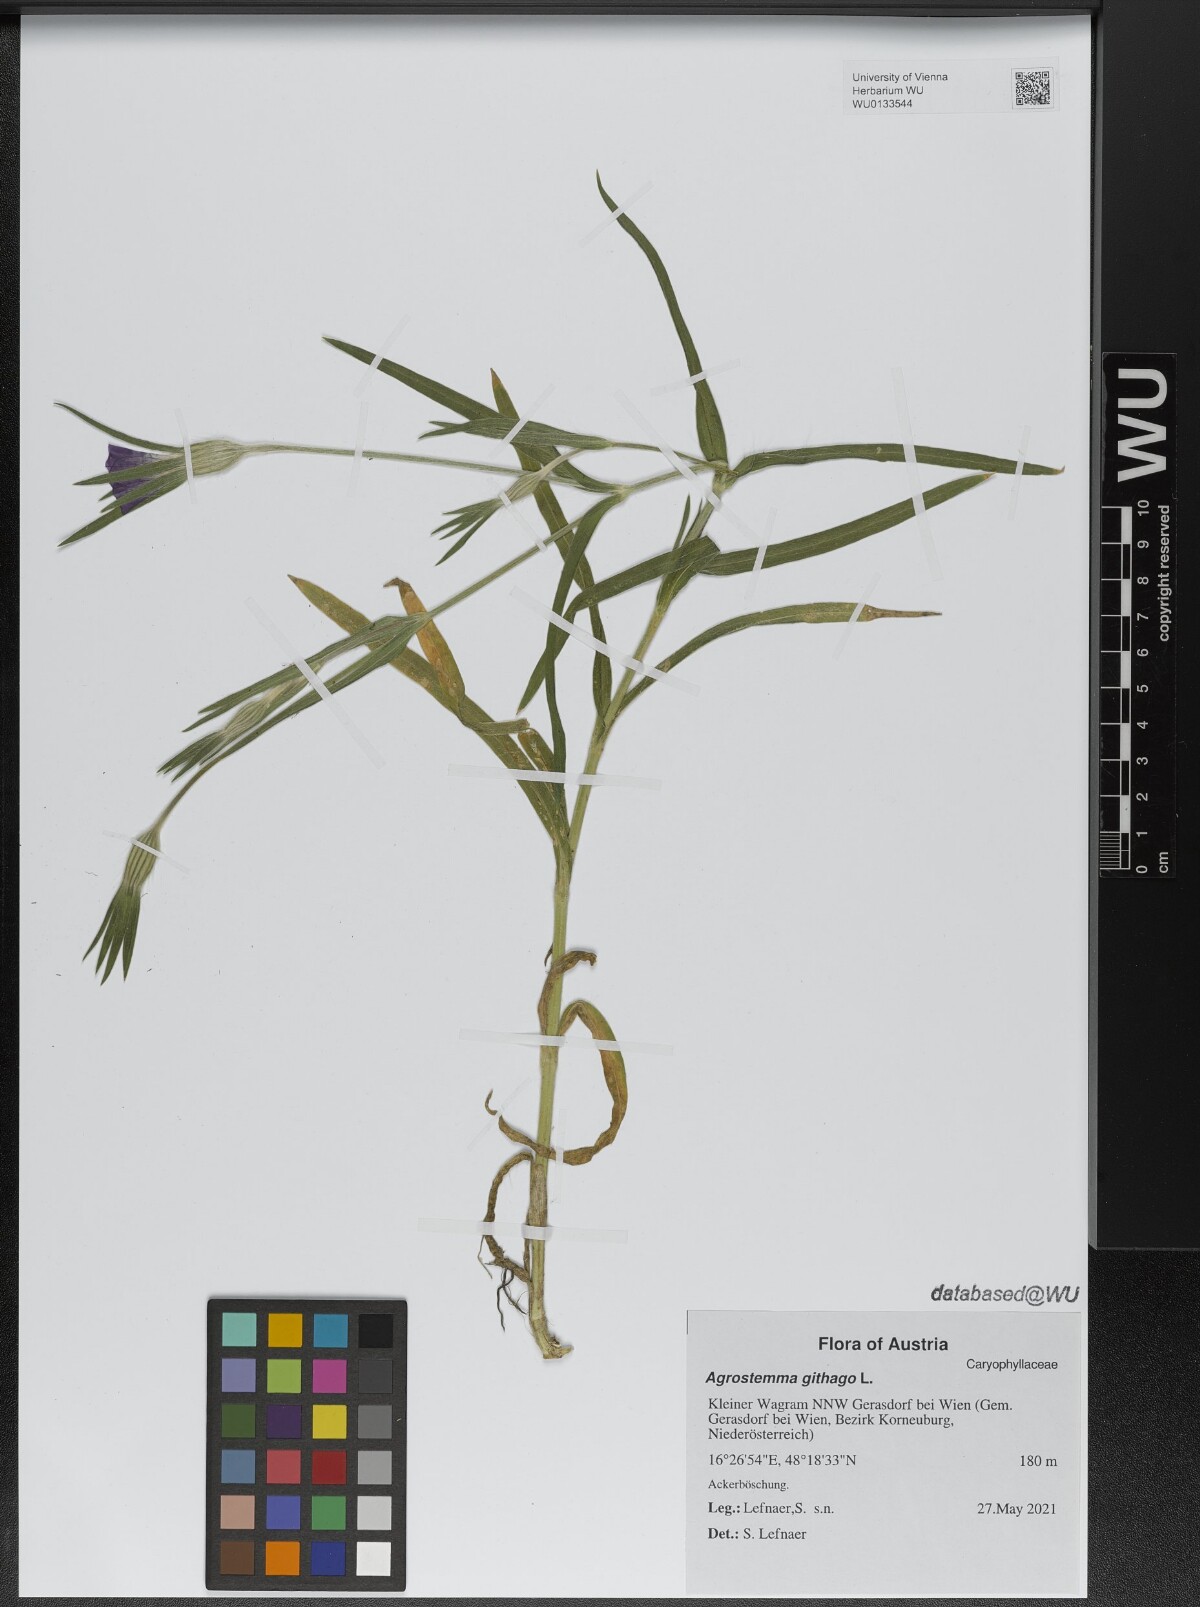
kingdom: Plantae
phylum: Tracheophyta
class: Magnoliopsida
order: Caryophyllales
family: Caryophyllaceae
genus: Agrostemma
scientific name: Agrostemma githago
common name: Common corncockle
